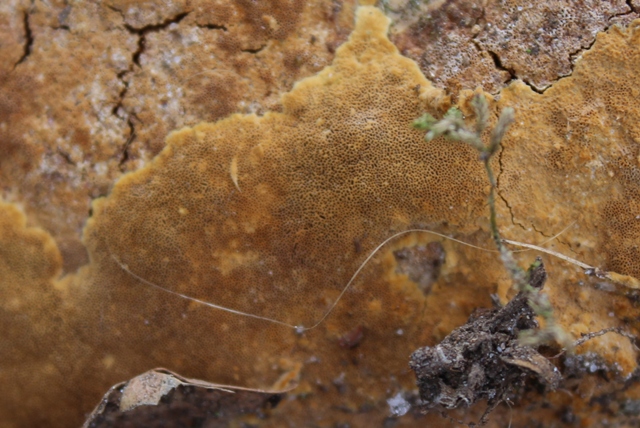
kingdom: Fungi
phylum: Basidiomycota
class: Agaricomycetes
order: Hymenochaetales
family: Hymenochaetaceae
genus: Fuscoporia
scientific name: Fuscoporia ferrea
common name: skorpe-ildporesvamp
